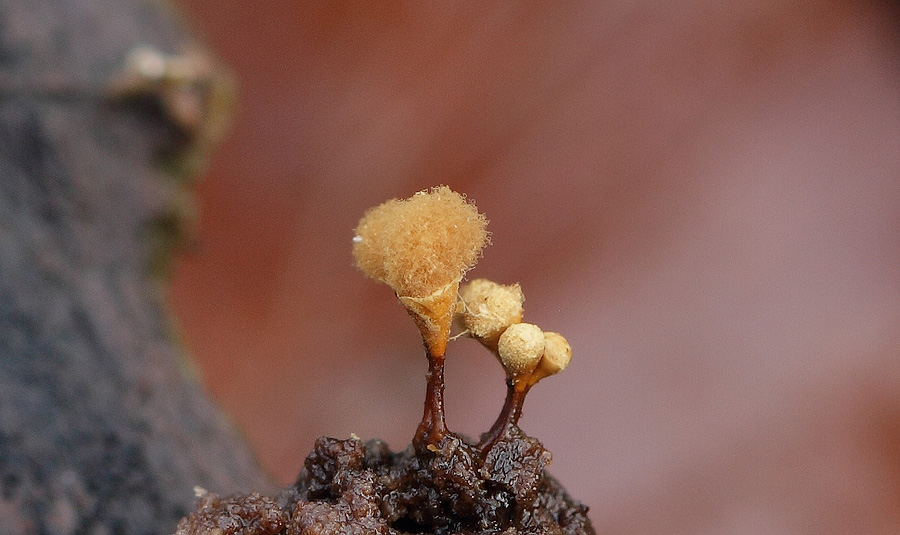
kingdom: Protozoa
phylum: Mycetozoa
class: Myxomycetes
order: Trichiales
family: Arcyriaceae
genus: Hemitrichia
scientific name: Hemitrichia clavata
